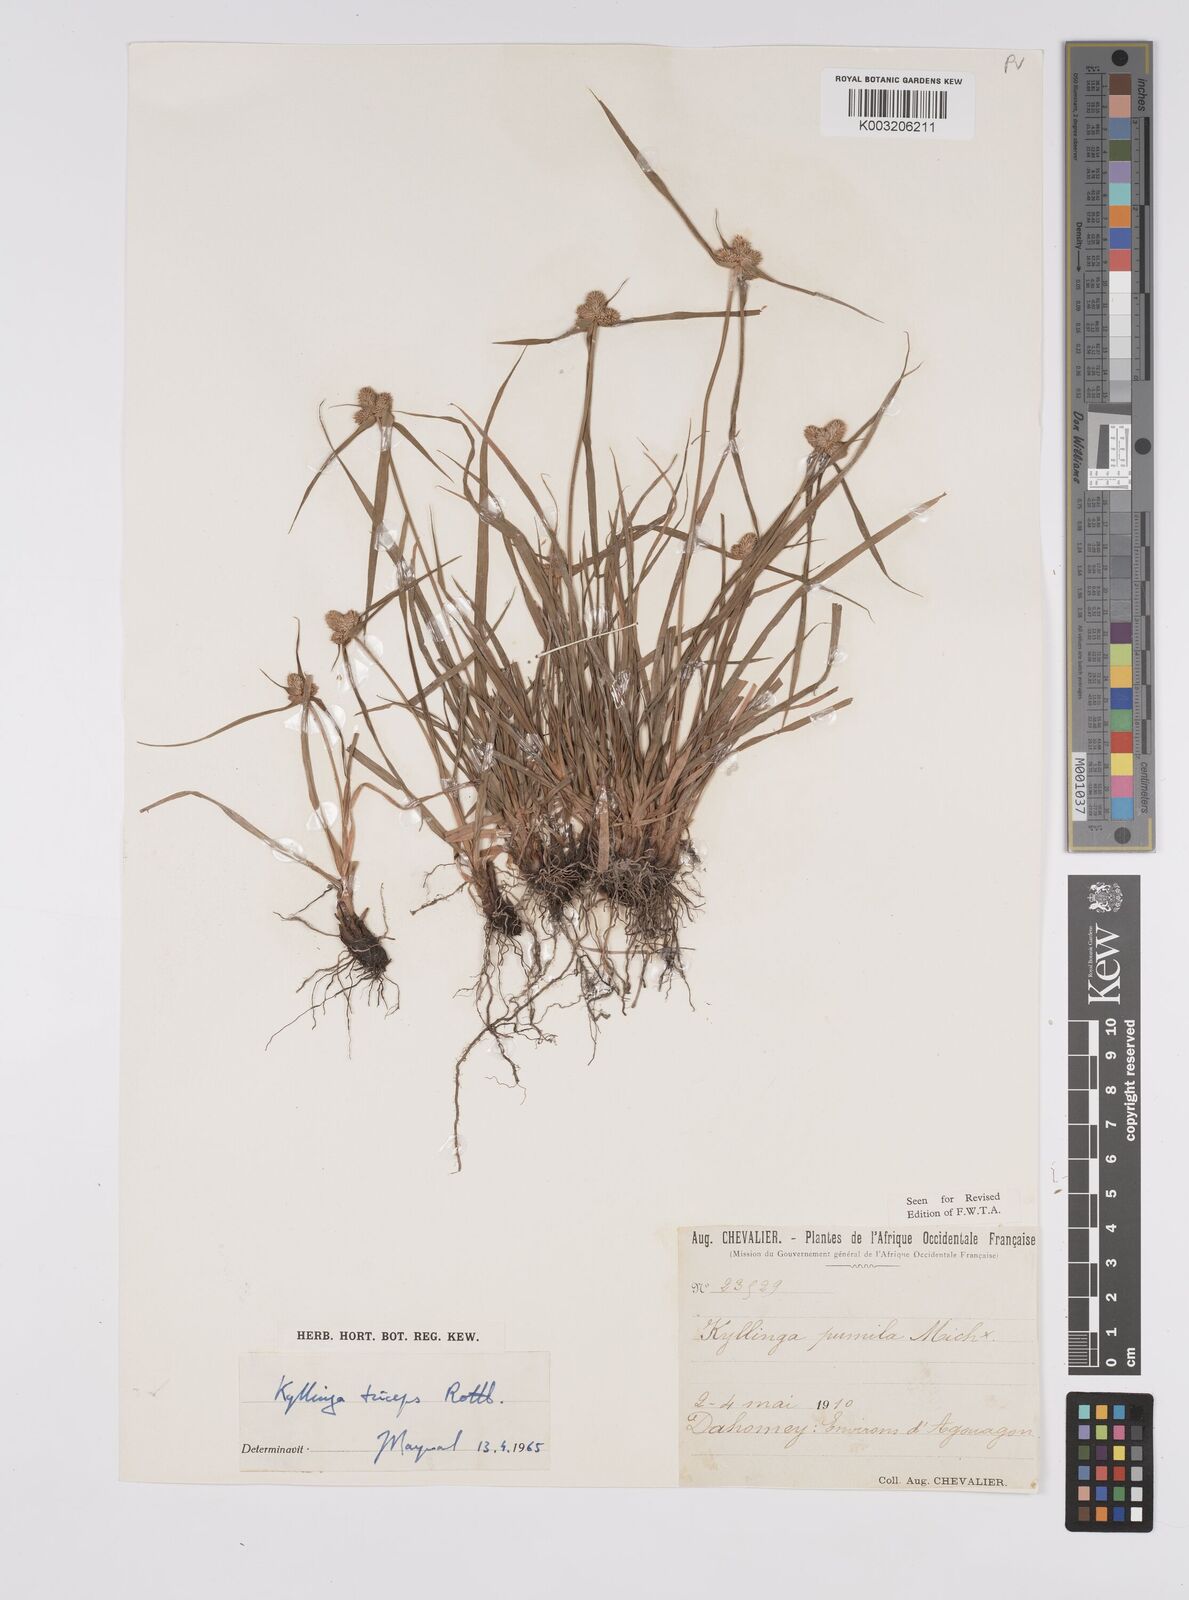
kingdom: Plantae
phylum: Tracheophyta
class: Liliopsida
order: Poales
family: Cyperaceae
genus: Cyperus
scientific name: Cyperus
